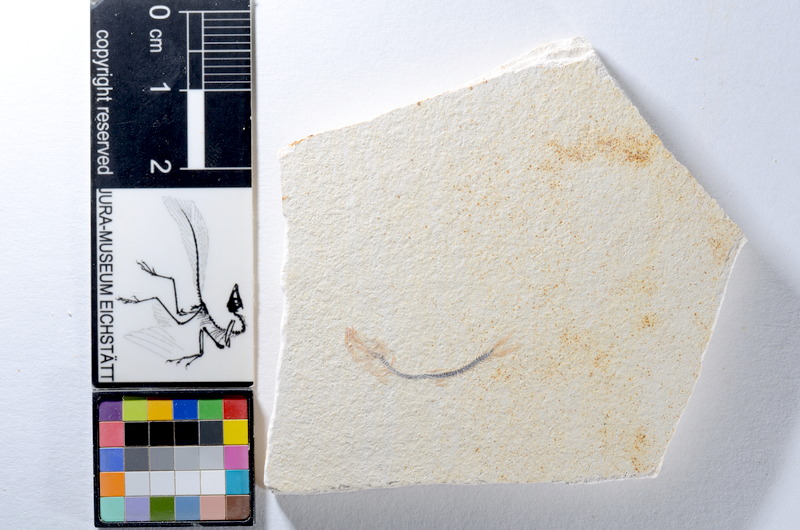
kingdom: Animalia
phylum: Chordata
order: Salmoniformes
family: Orthogonikleithridae
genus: Orthogonikleithrus
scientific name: Orthogonikleithrus hoelli
